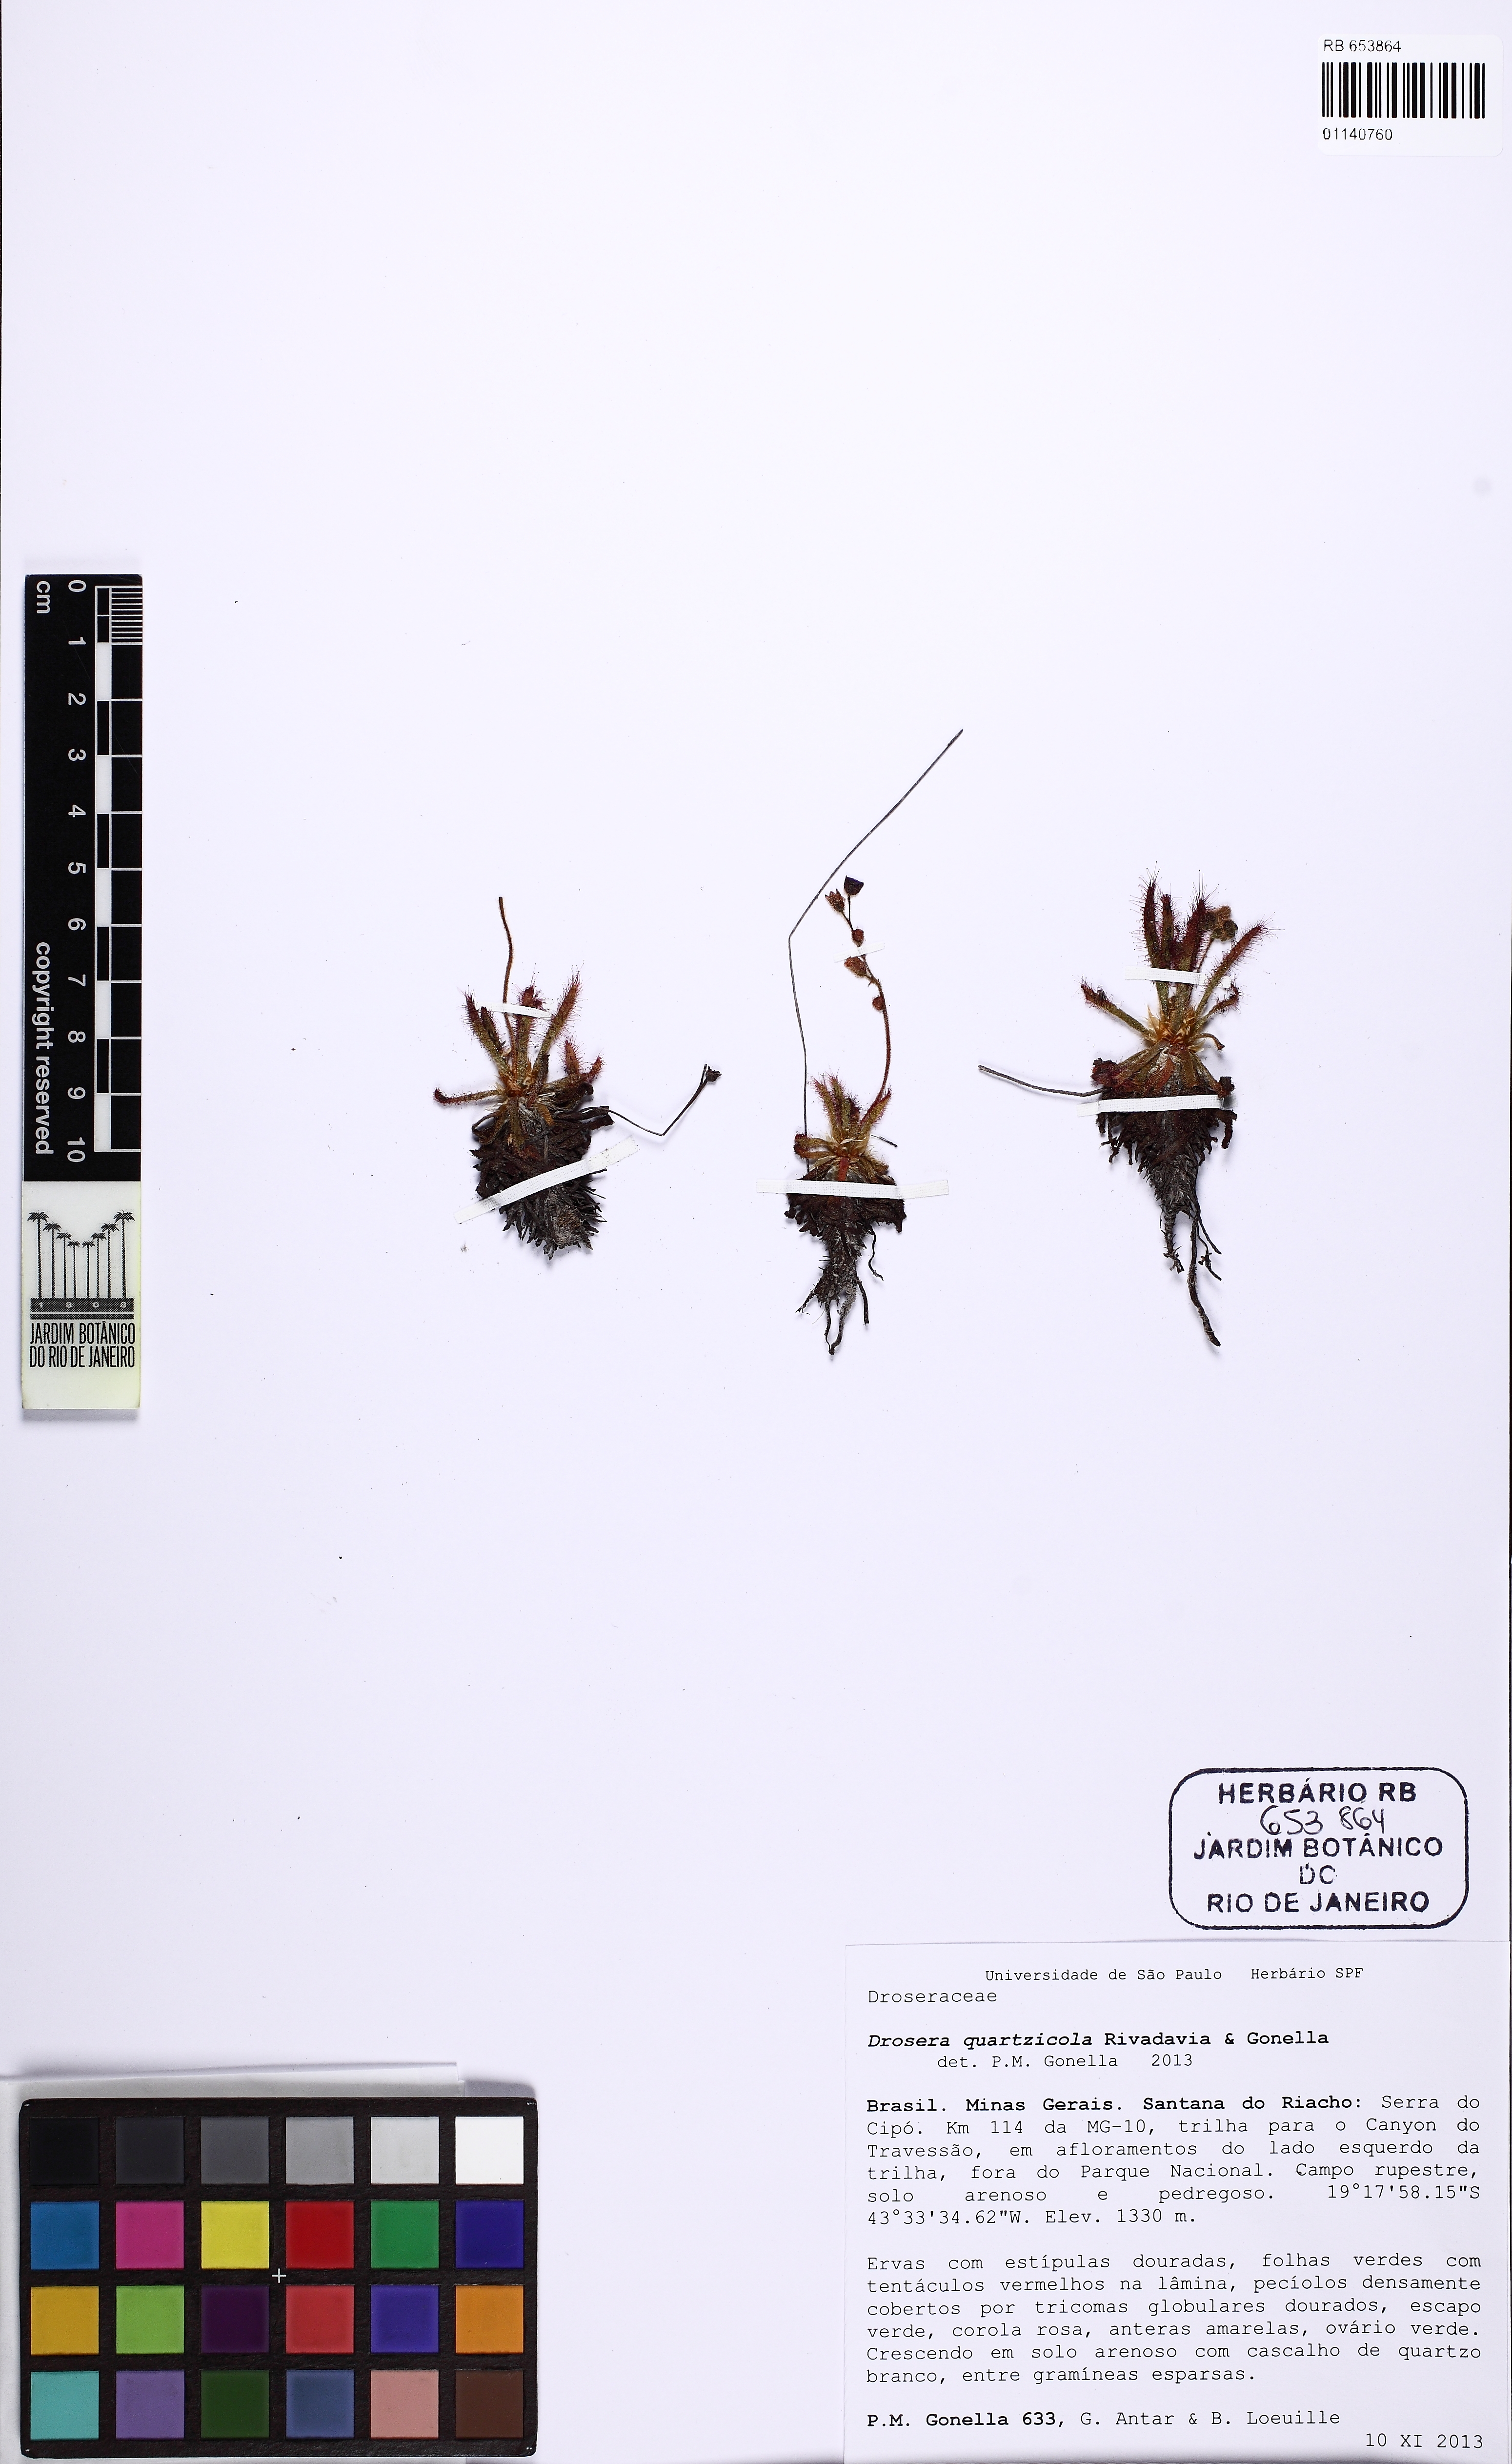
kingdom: Plantae
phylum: Tracheophyta
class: Magnoliopsida
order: Caryophyllales
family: Droseraceae
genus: Drosera
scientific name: Drosera quartzicola
